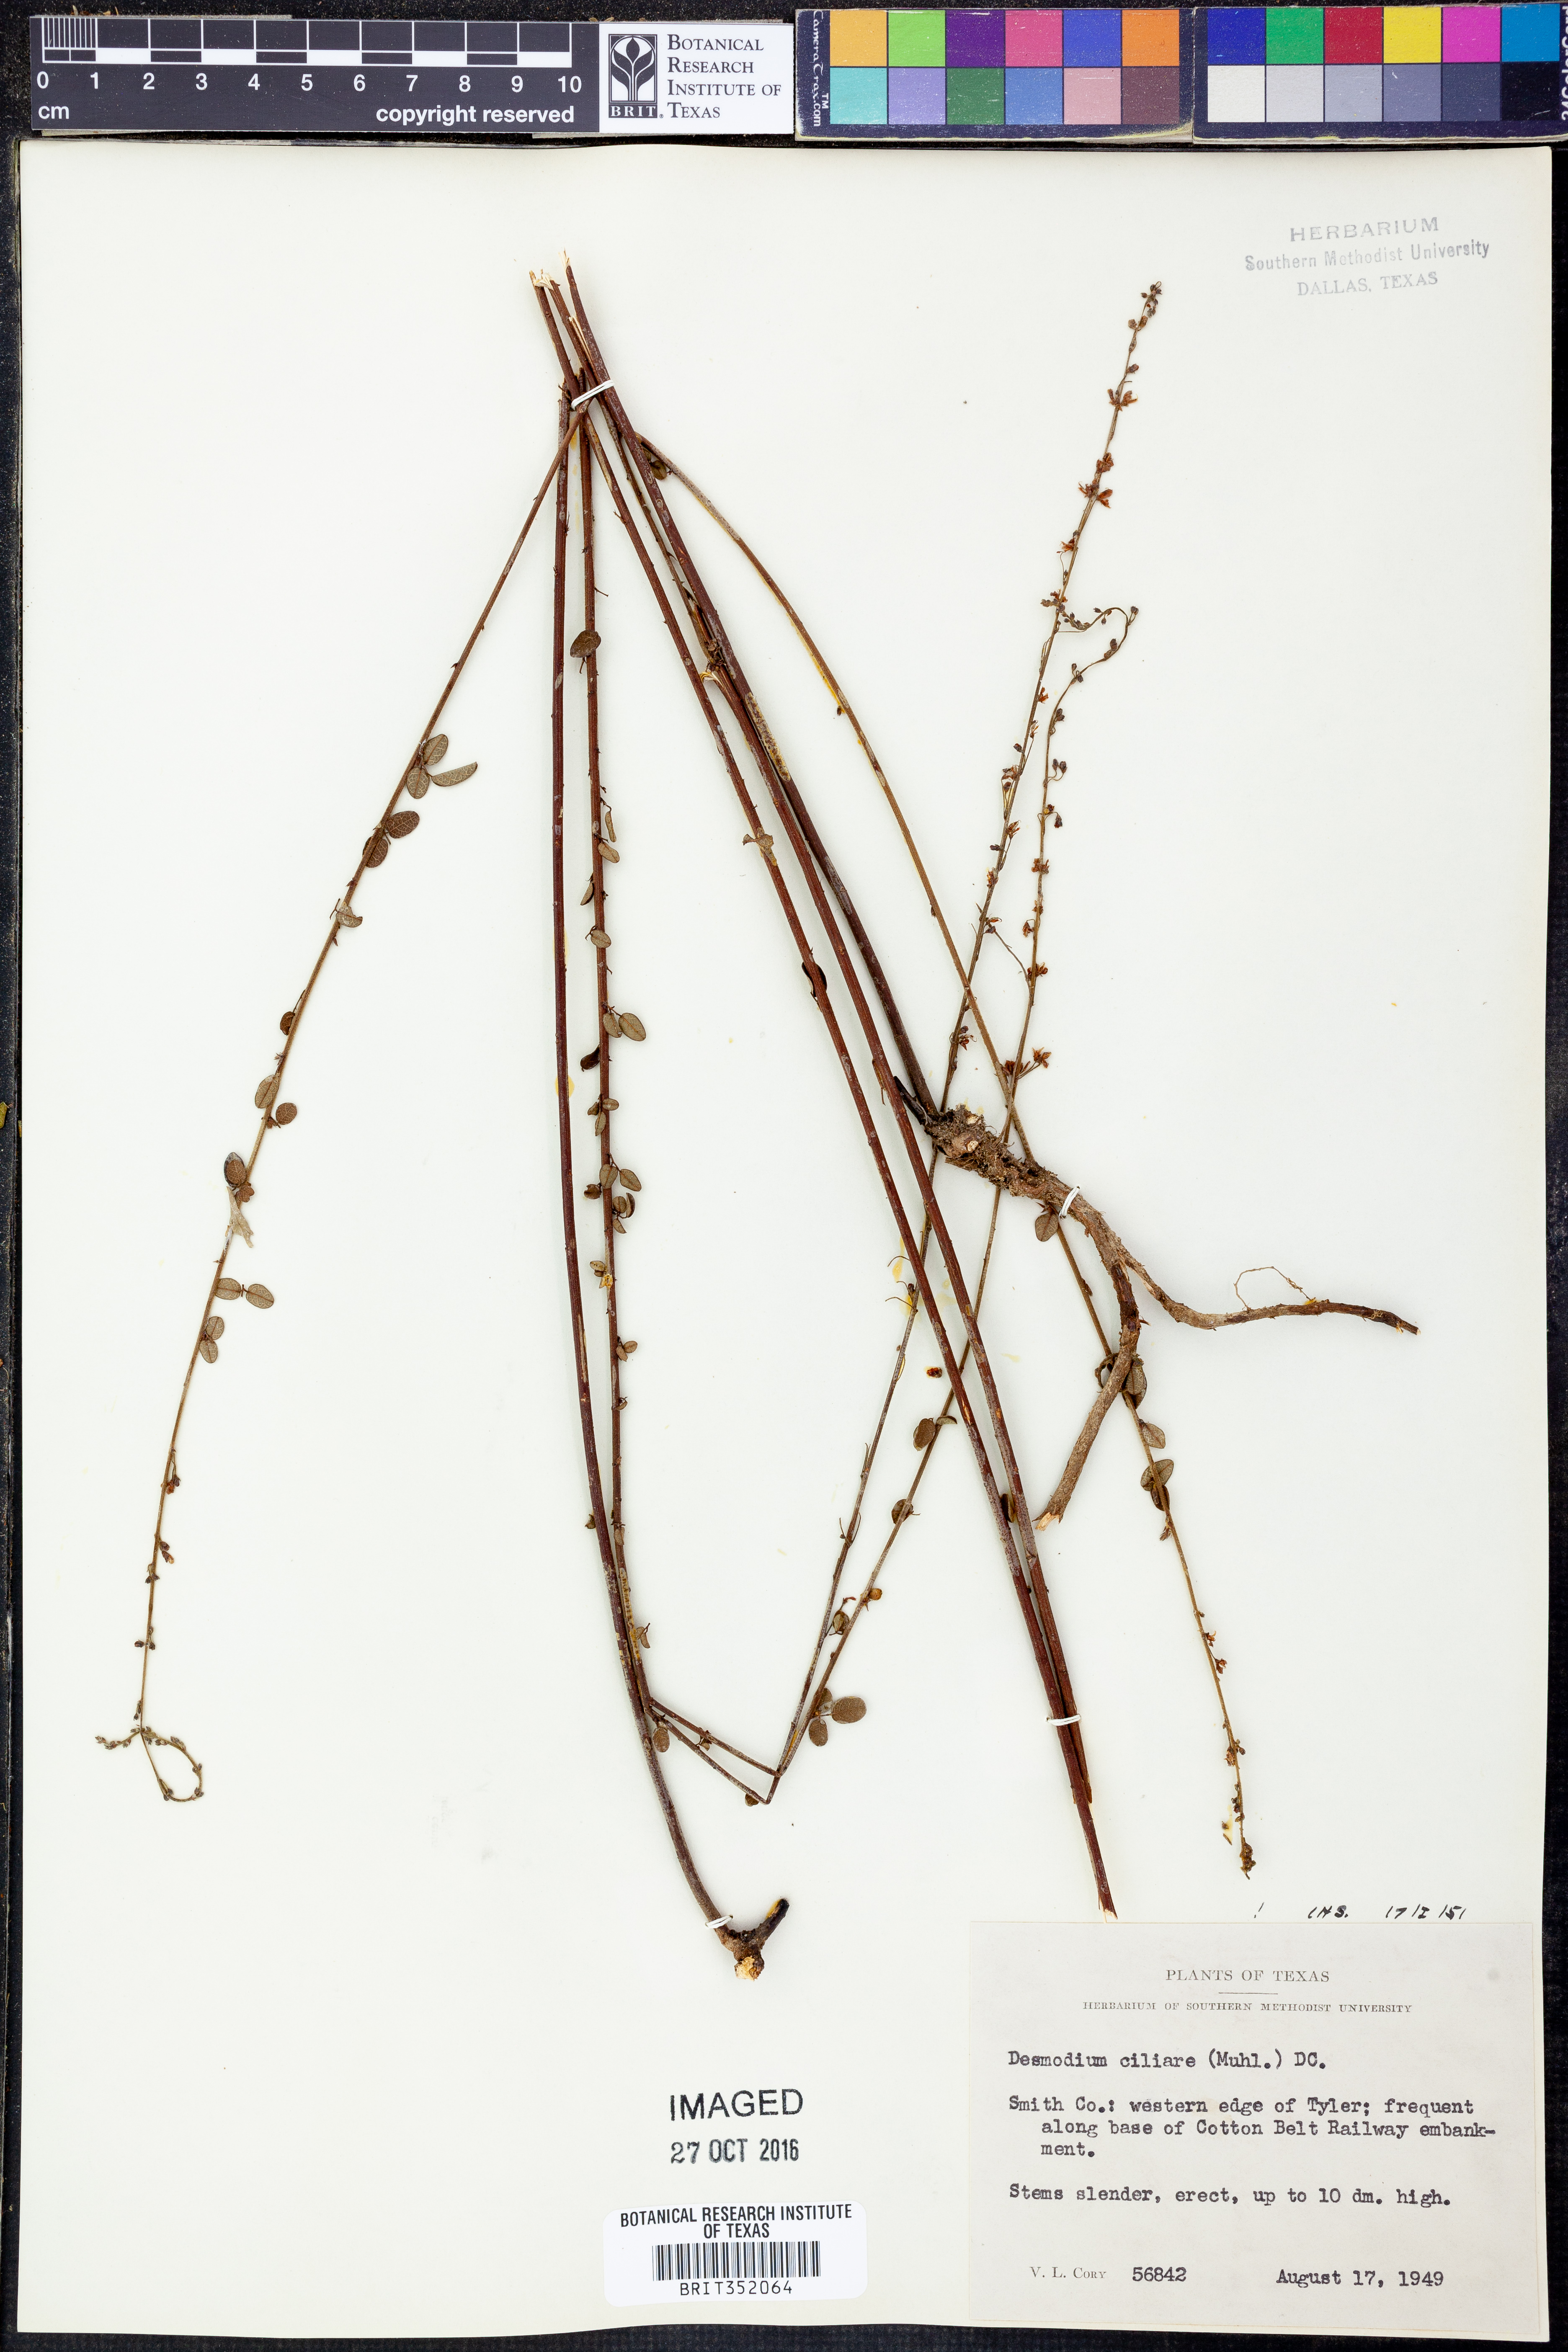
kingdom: Plantae
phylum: Tracheophyta
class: Magnoliopsida
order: Fabales
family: Fabaceae
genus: Desmodium
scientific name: Desmodium ciliare
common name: Hairy small-leaf ticktrefoil
